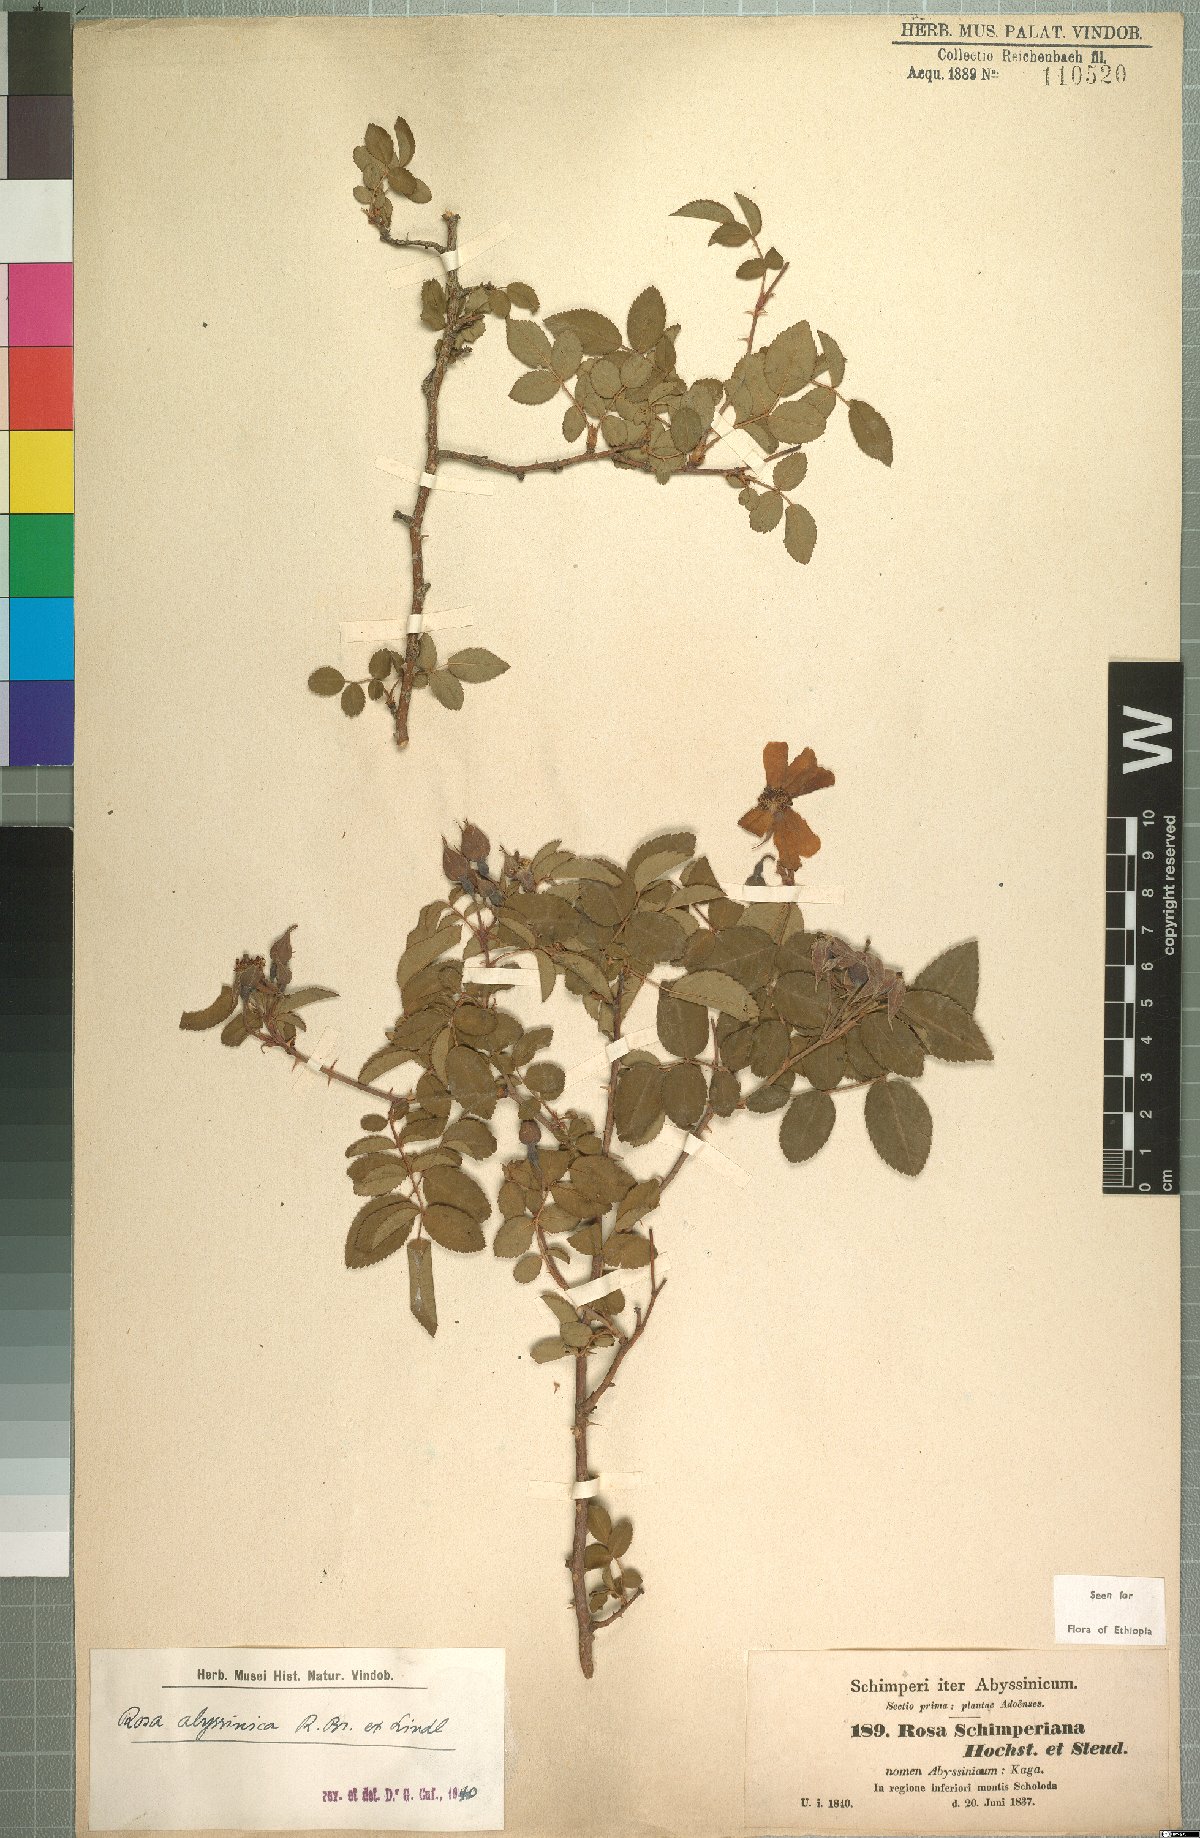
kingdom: Plantae
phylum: Tracheophyta
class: Magnoliopsida
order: Rosales
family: Rosaceae
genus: Rosa
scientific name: Rosa abyssinica
